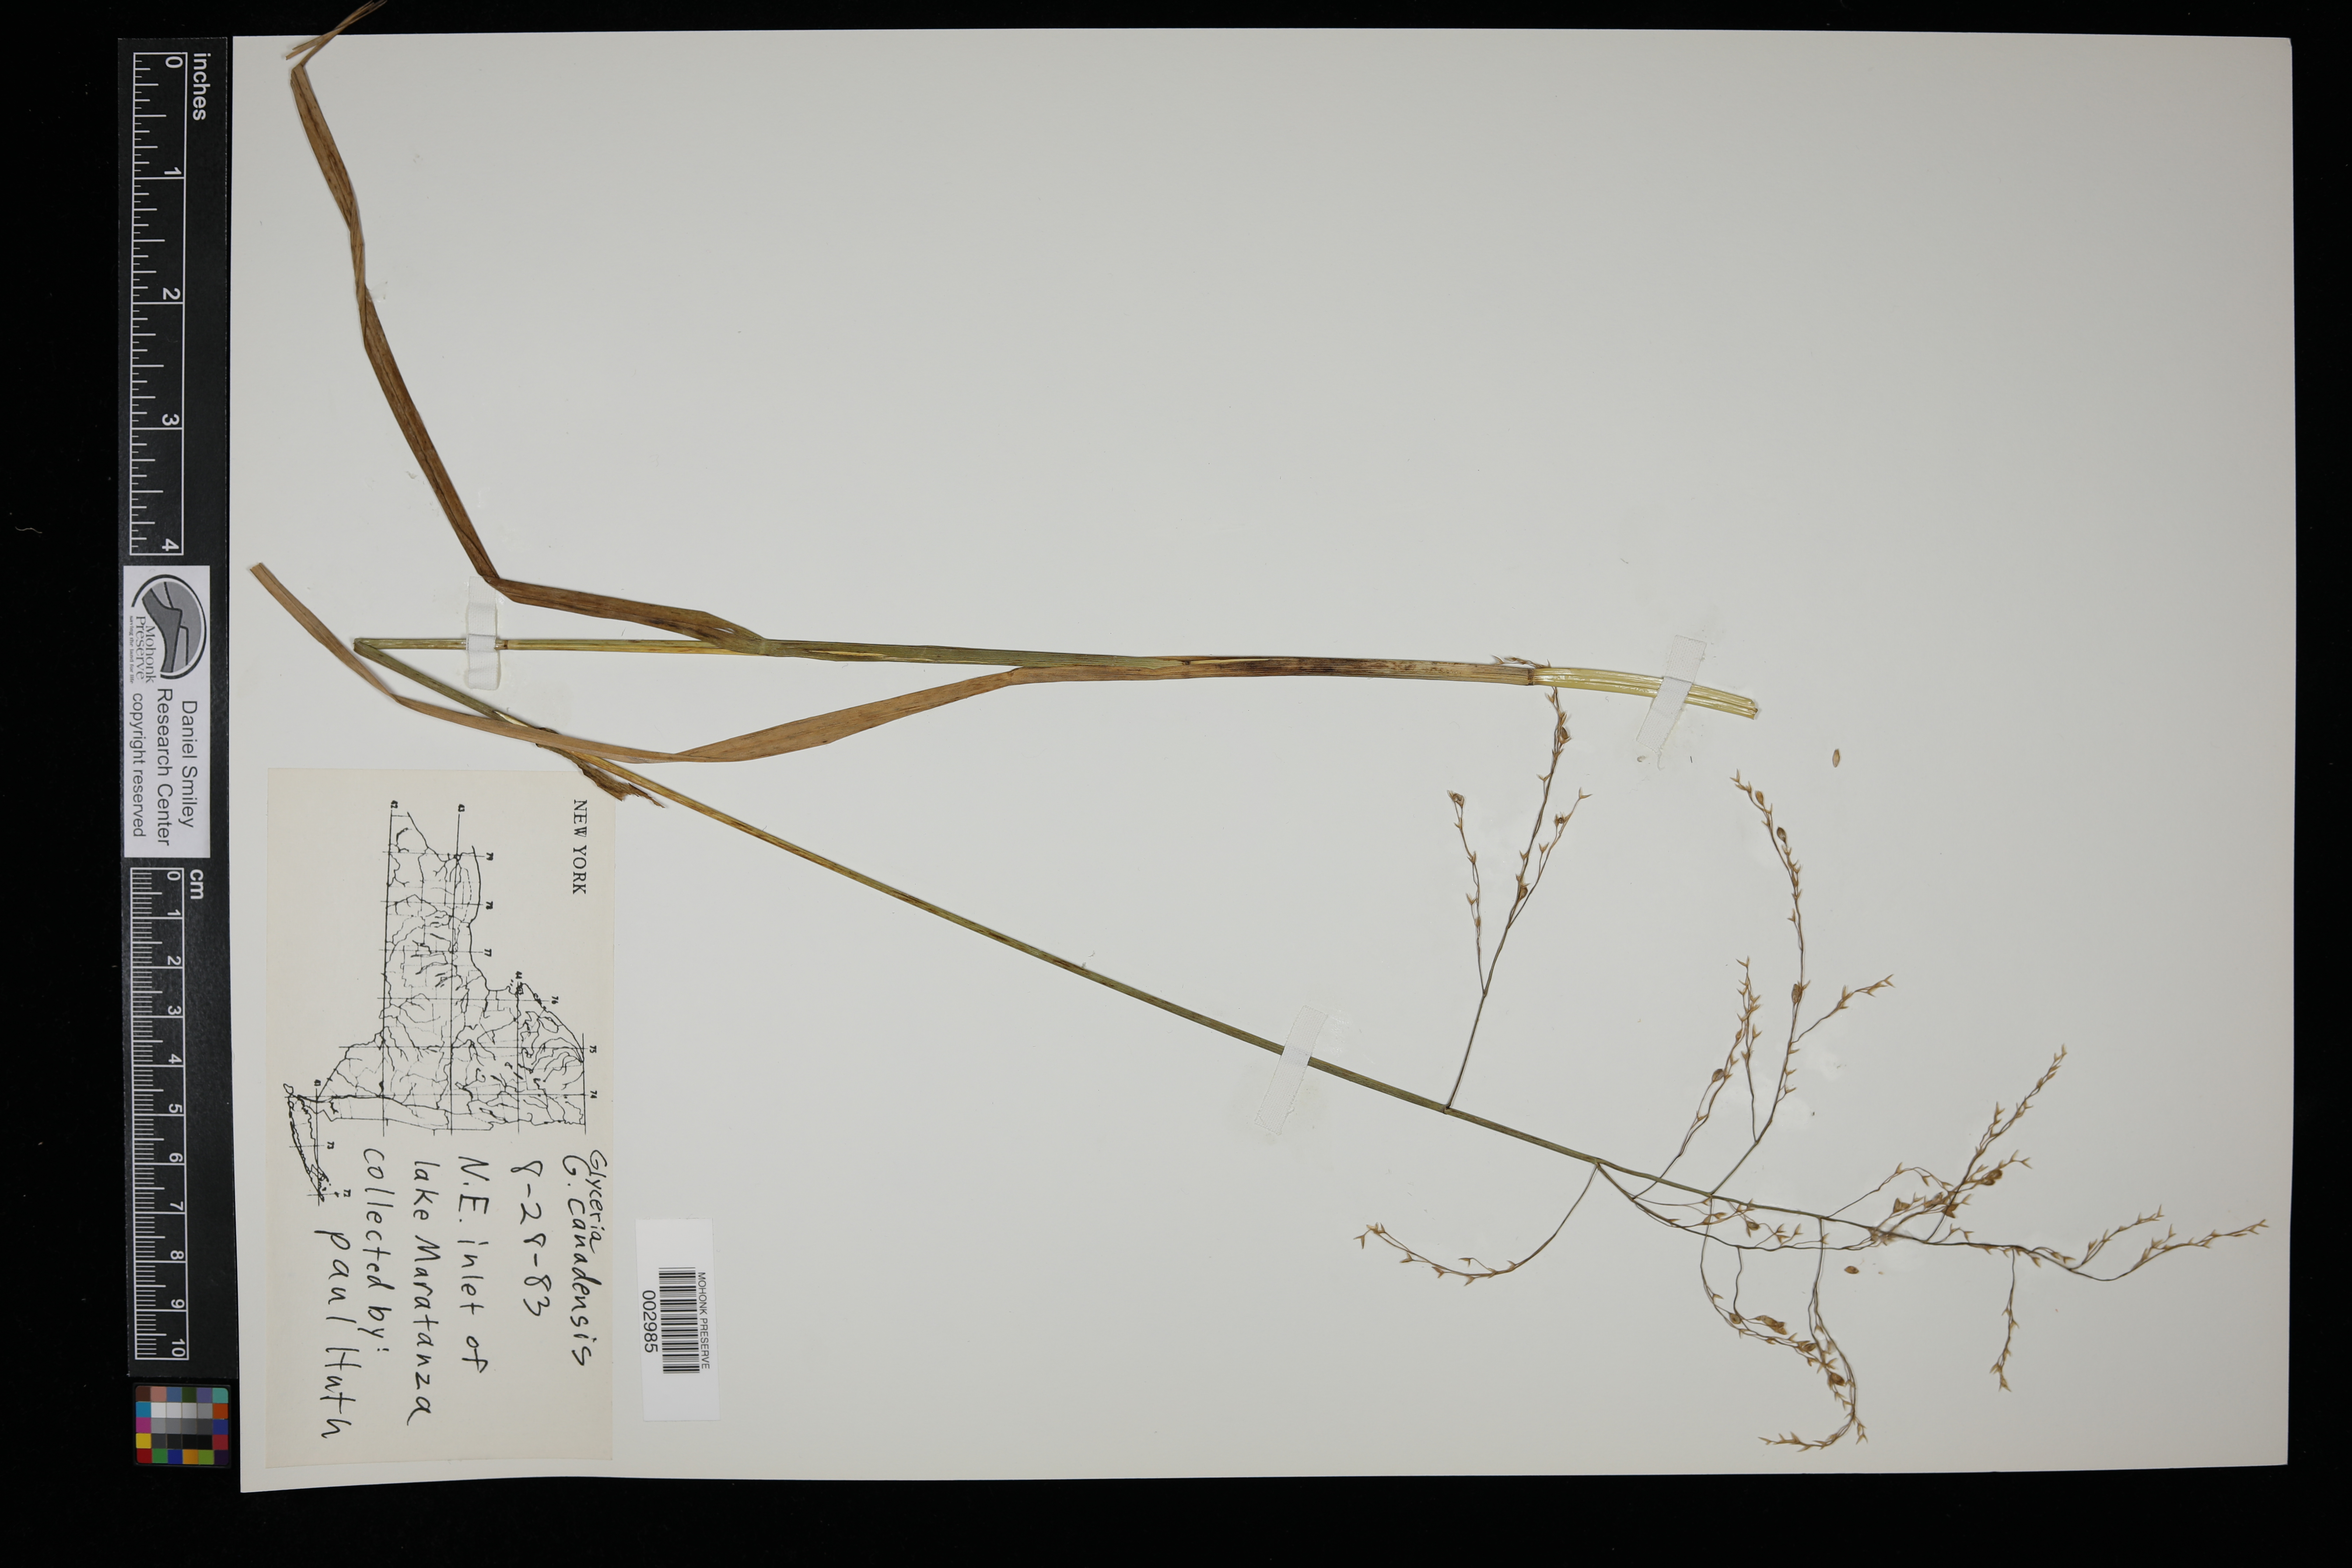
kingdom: Plantae
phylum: Tracheophyta
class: Liliopsida
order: Poales
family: Poaceae
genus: Glyceria
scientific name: Glyceria canadensis
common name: Canada mannagrass
